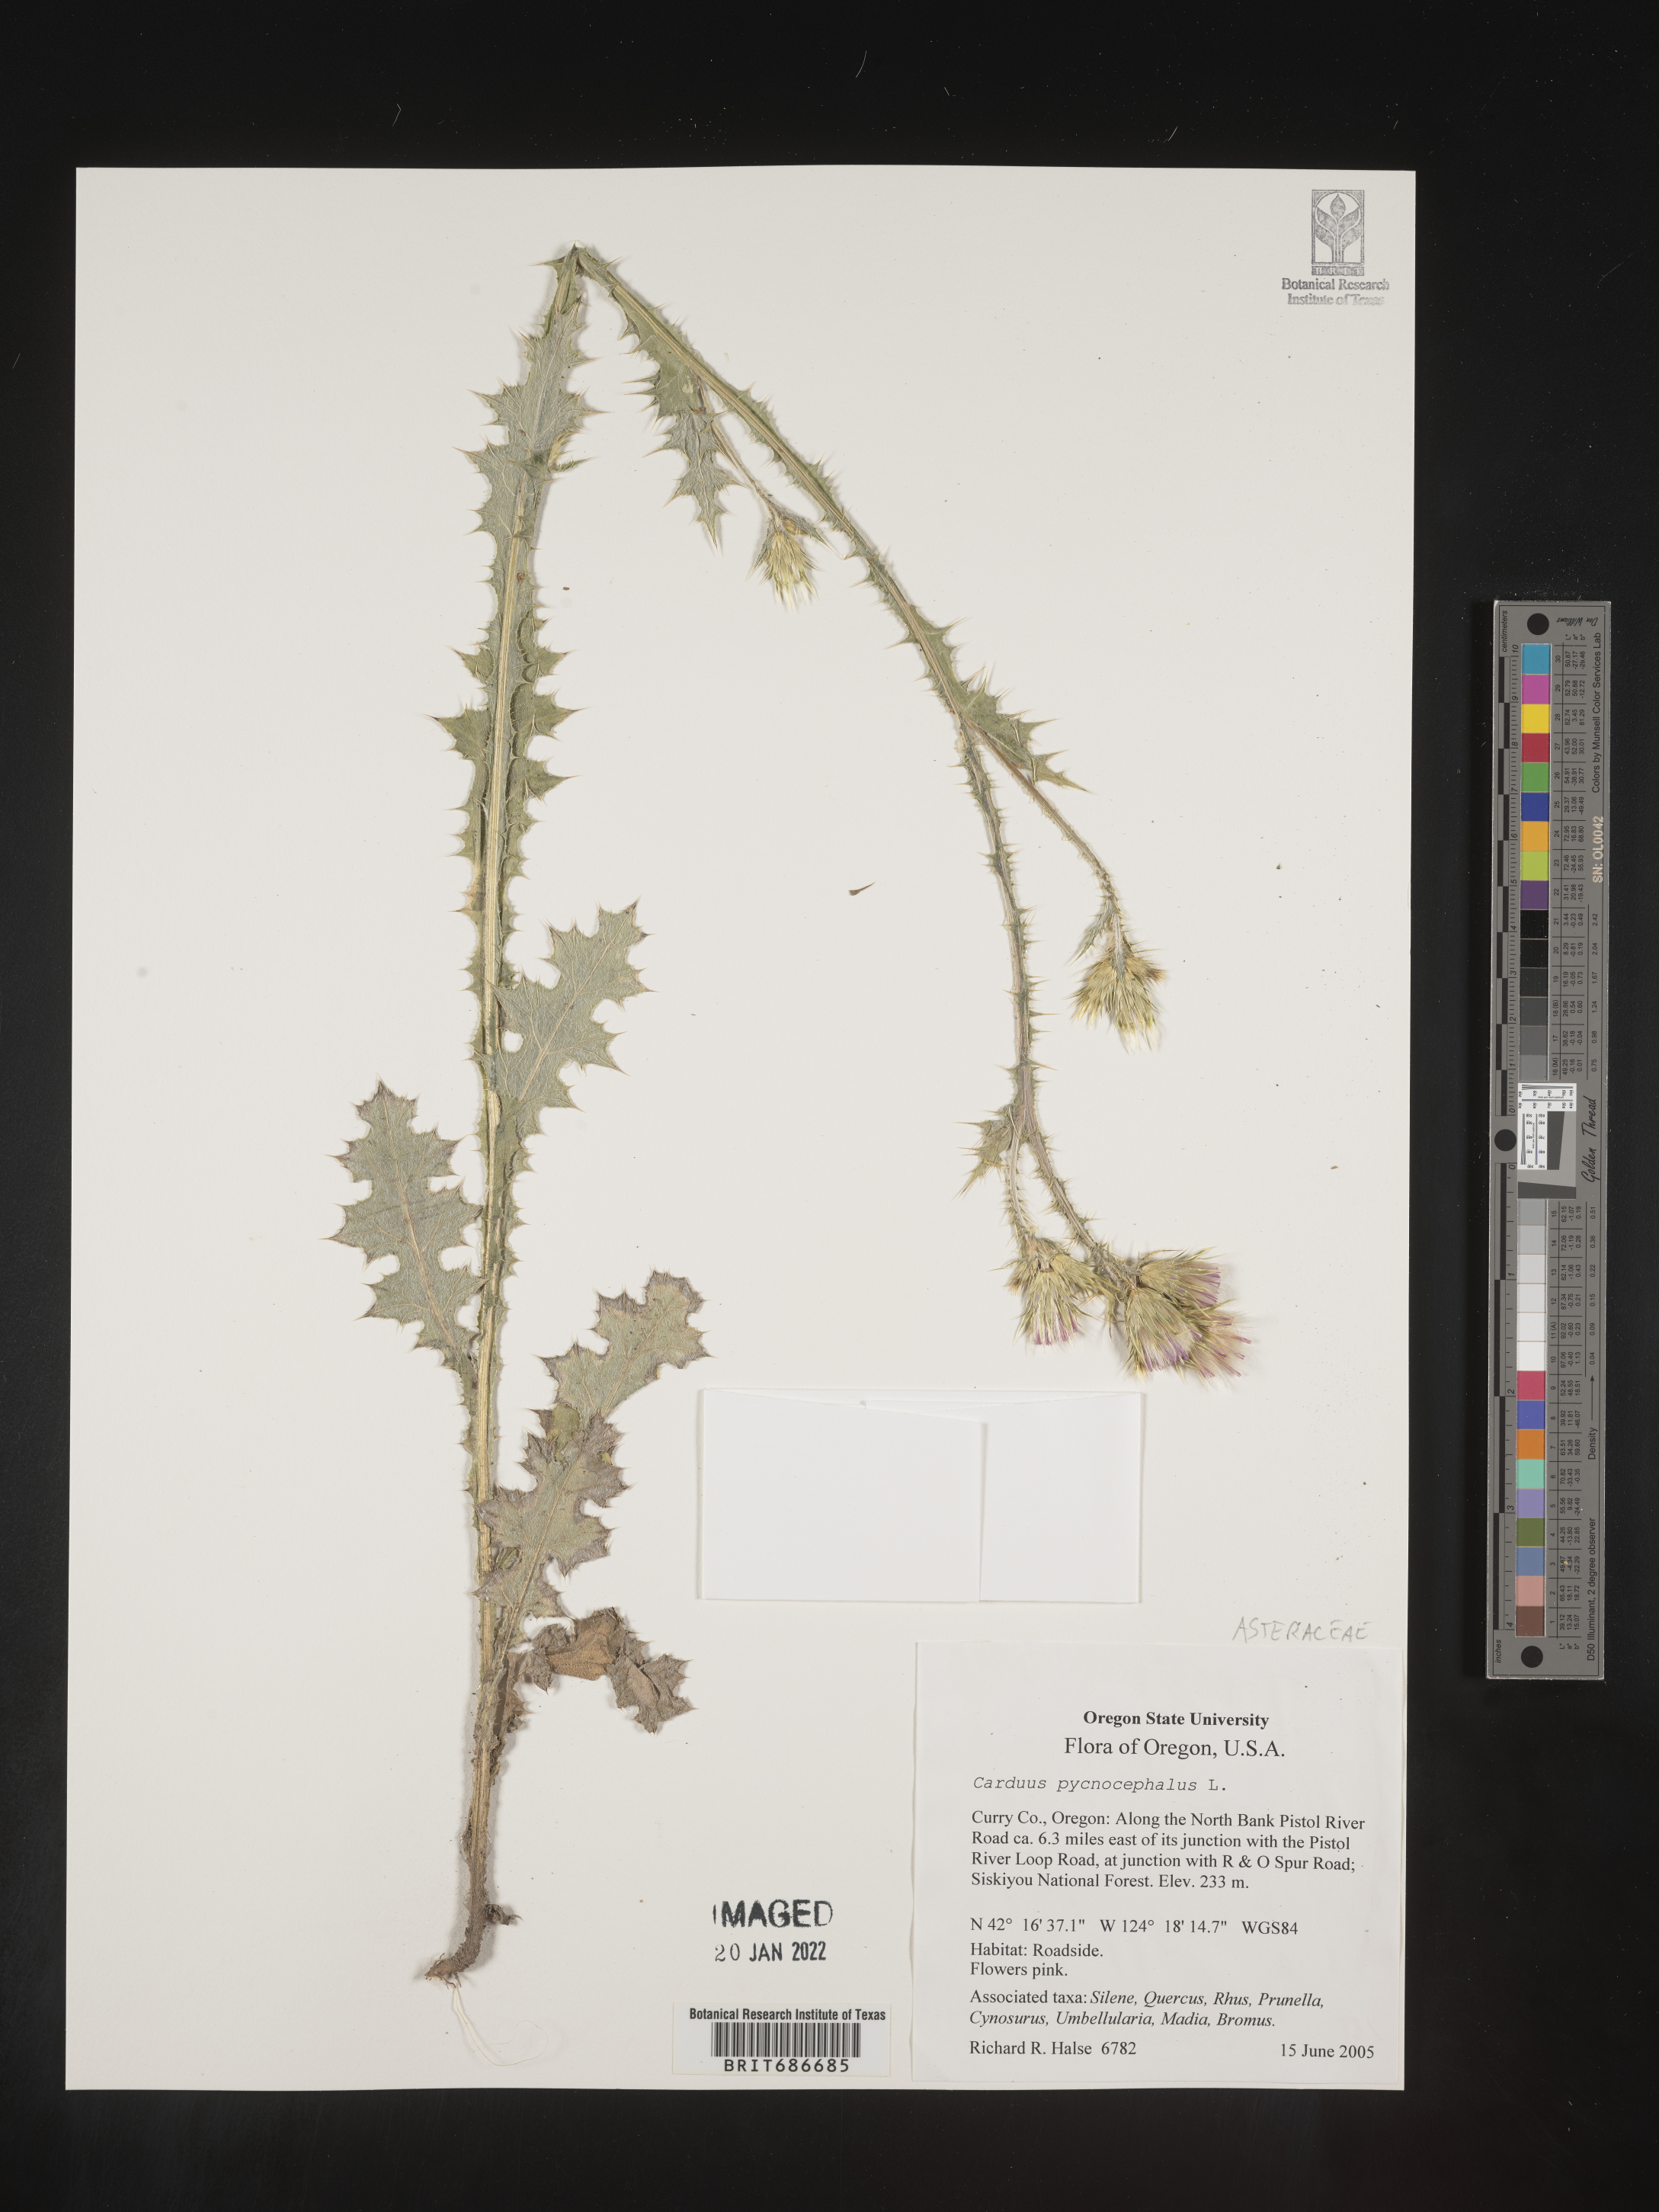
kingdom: Plantae
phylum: Tracheophyta
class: Magnoliopsida
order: Asterales
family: Asteraceae
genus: Carduus
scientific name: Carduus cephalanthus
